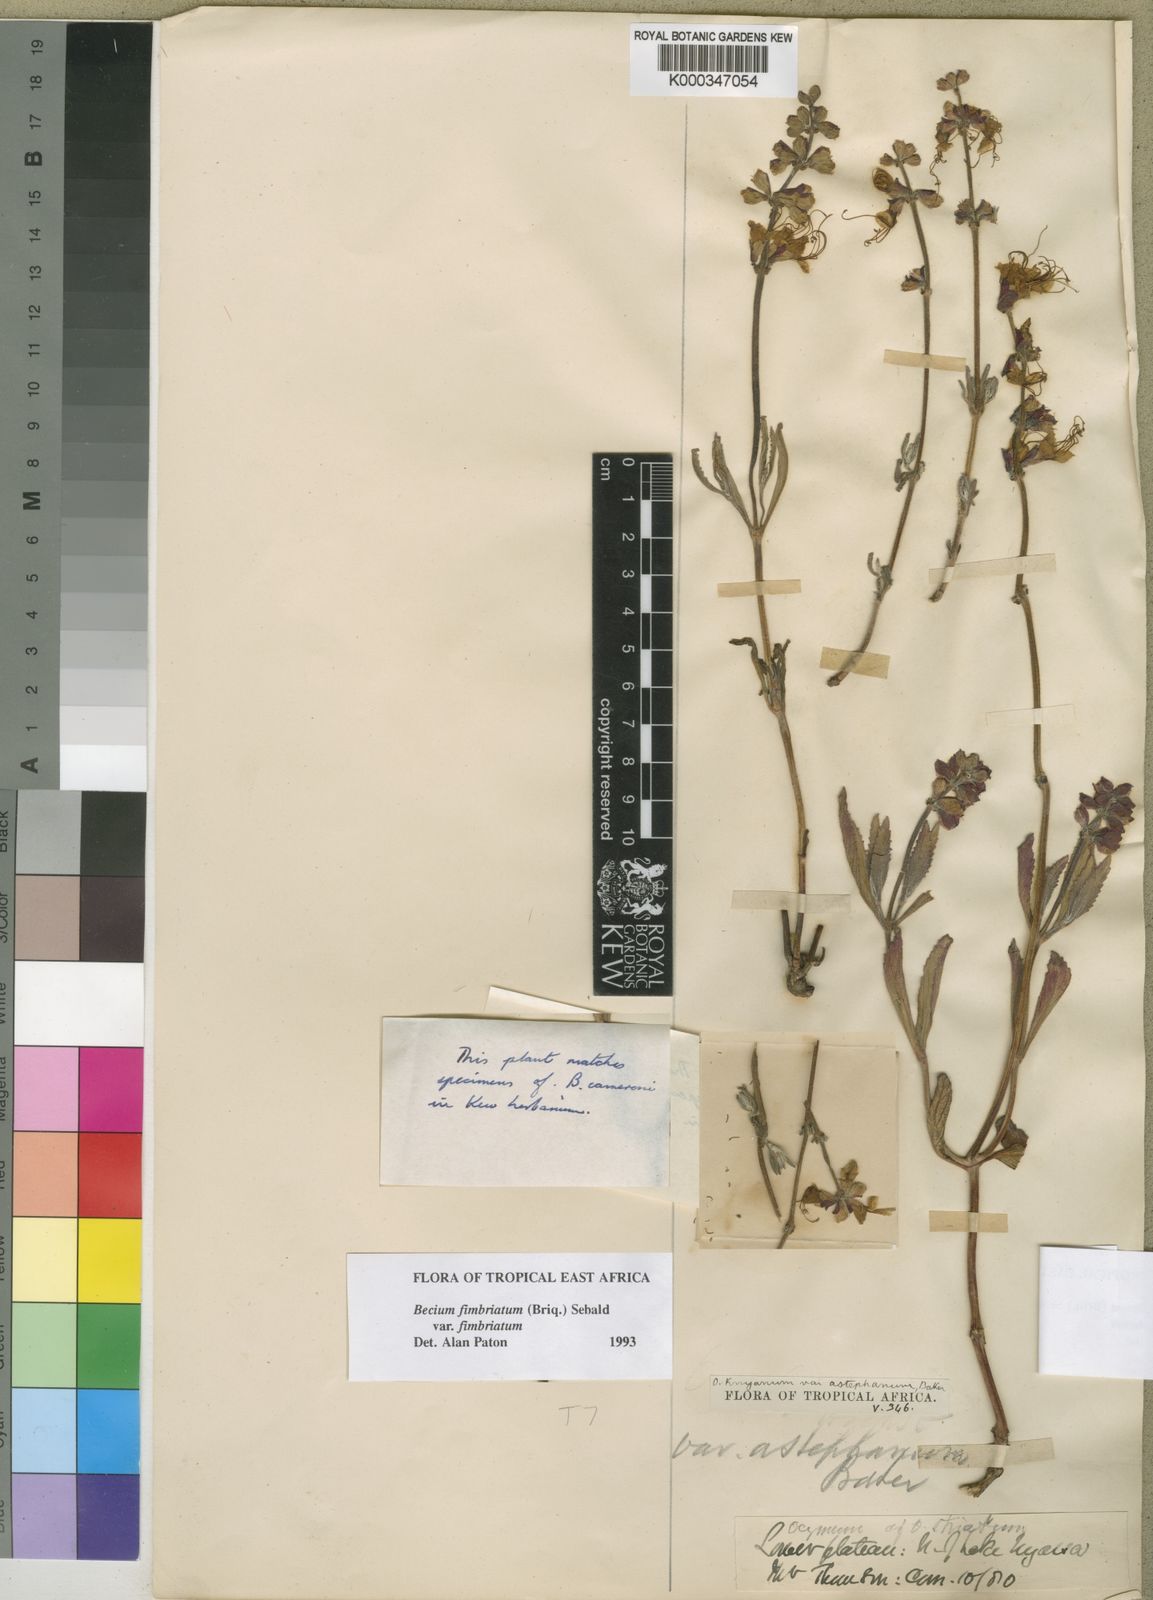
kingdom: Plantae
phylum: Tracheophyta
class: Magnoliopsida
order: Lamiales
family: Lamiaceae
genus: Ocimum
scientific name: Ocimum fimbriatum
